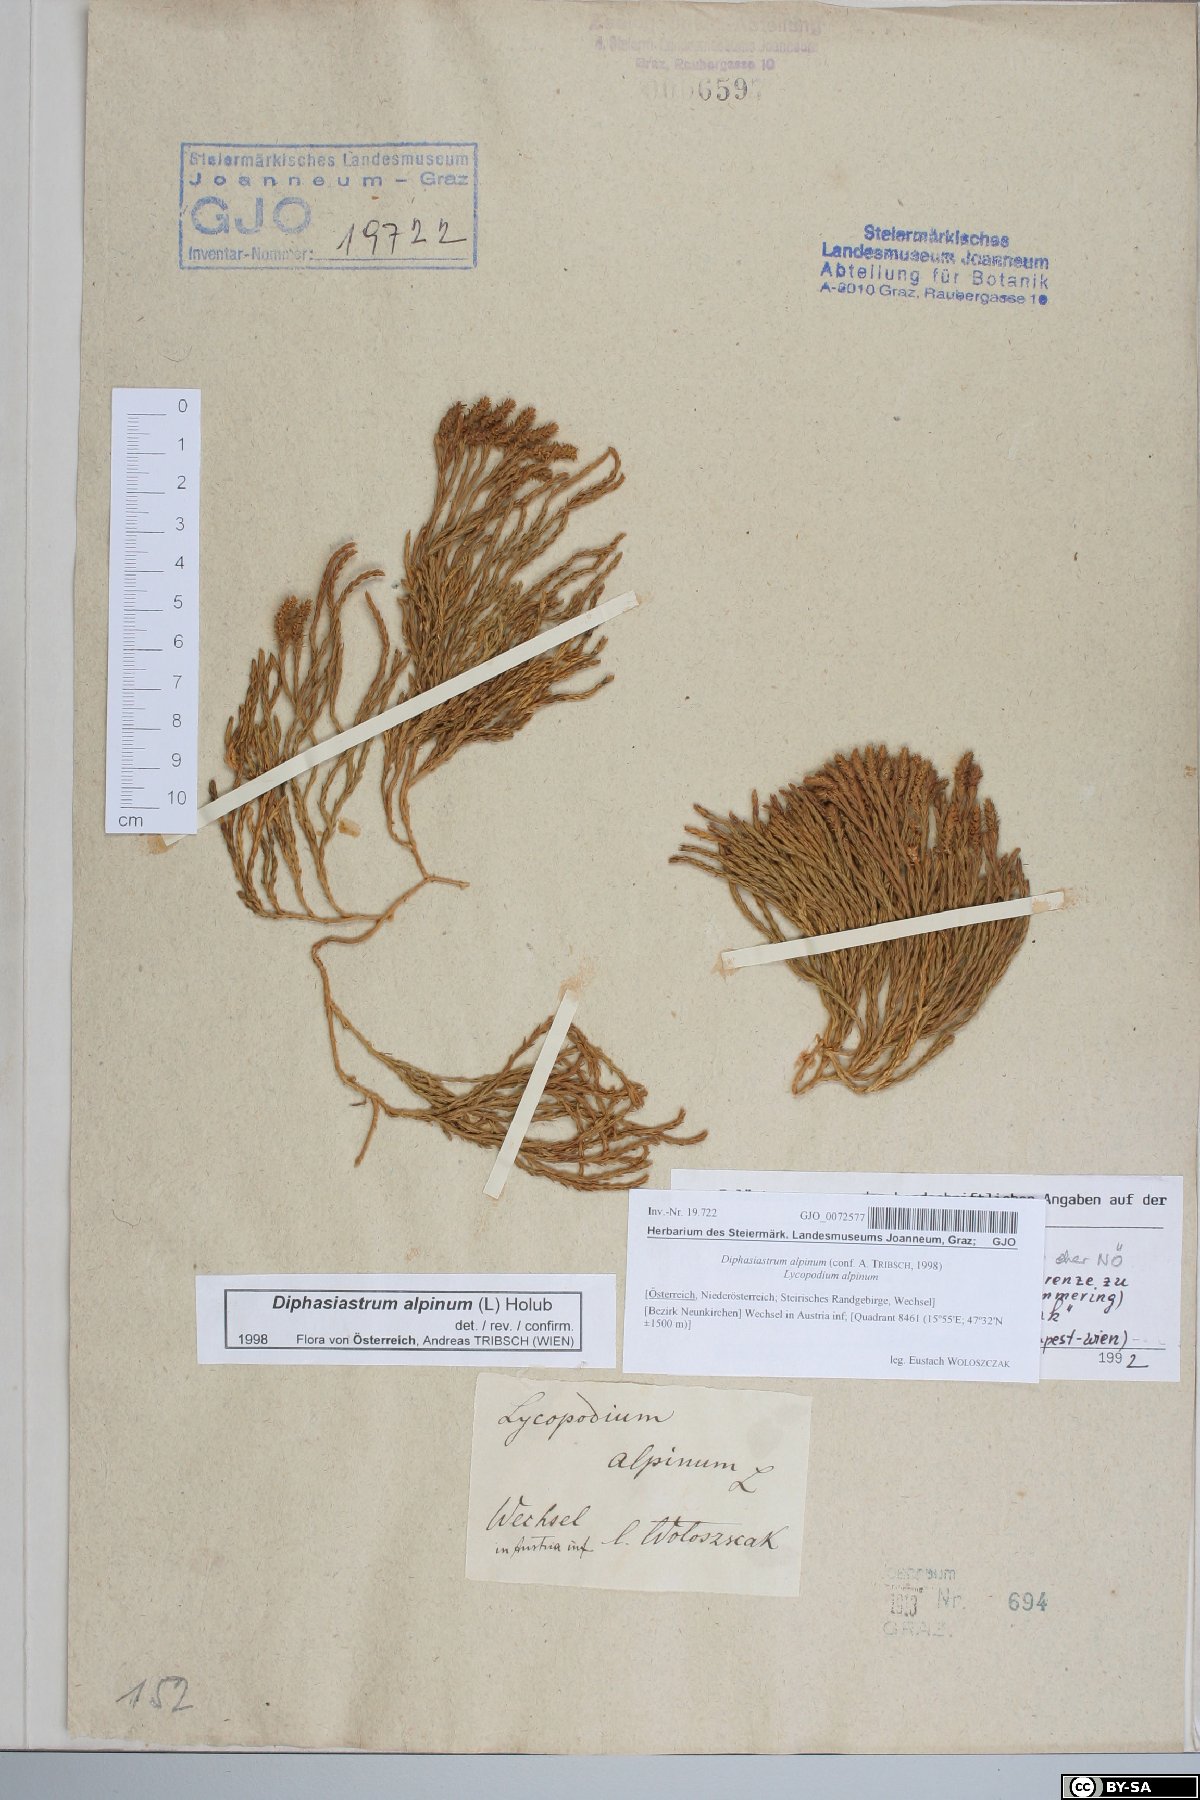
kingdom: Plantae
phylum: Tracheophyta
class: Lycopodiopsida
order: Lycopodiales
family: Lycopodiaceae
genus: Diphasiastrum
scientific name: Diphasiastrum alpinum
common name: Alpine clubmoss
